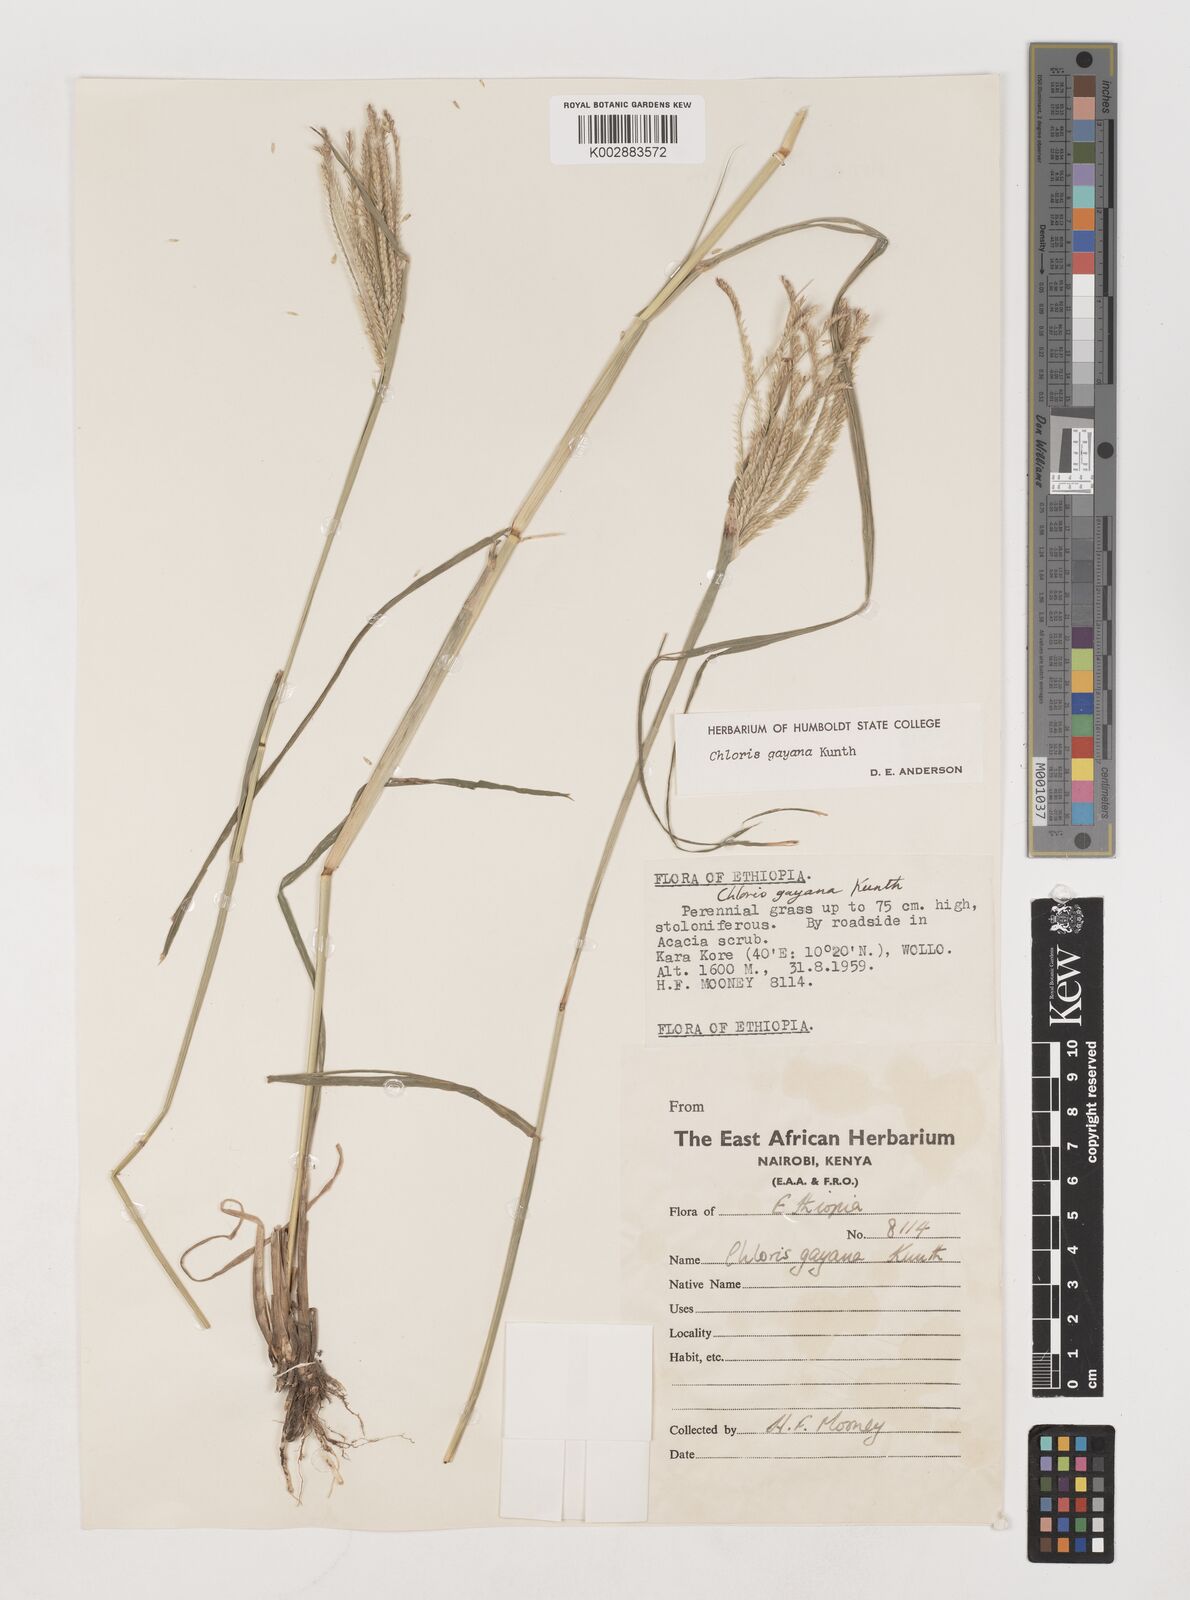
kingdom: Plantae
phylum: Tracheophyta
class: Liliopsida
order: Poales
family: Poaceae
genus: Chloris
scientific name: Chloris gayana
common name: Rhodes grass
